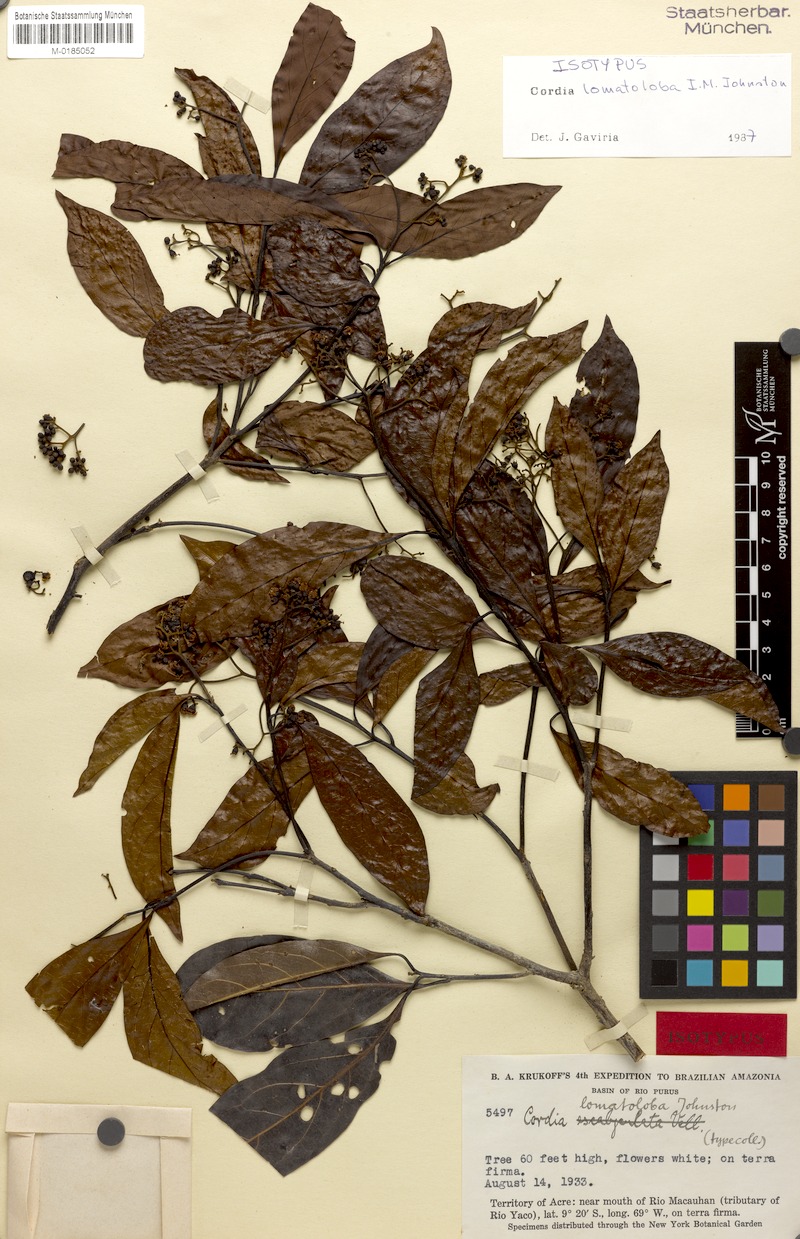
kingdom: Plantae
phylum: Tracheophyta
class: Magnoliopsida
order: Boraginales
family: Cordiaceae
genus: Cordia
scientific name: Cordia lomatoloba
